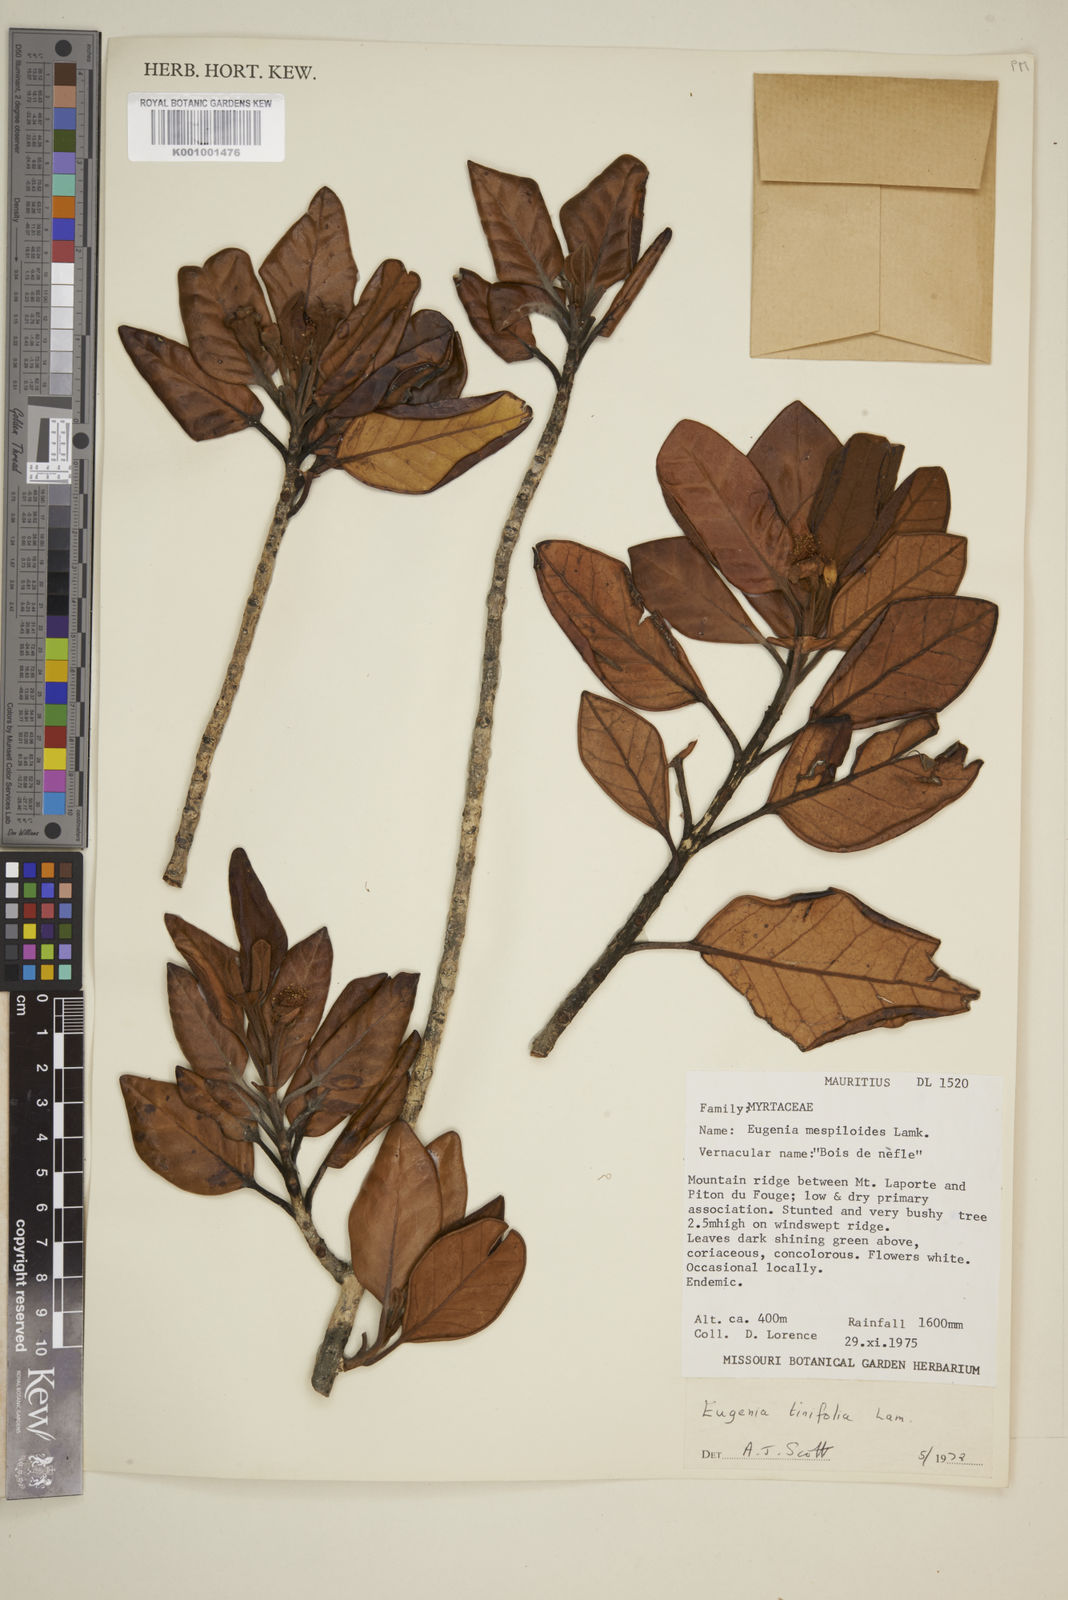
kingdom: Plantae
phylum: Tracheophyta
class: Magnoliopsida
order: Myrtales
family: Myrtaceae
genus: Eugenia
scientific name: Eugenia mespiloides
